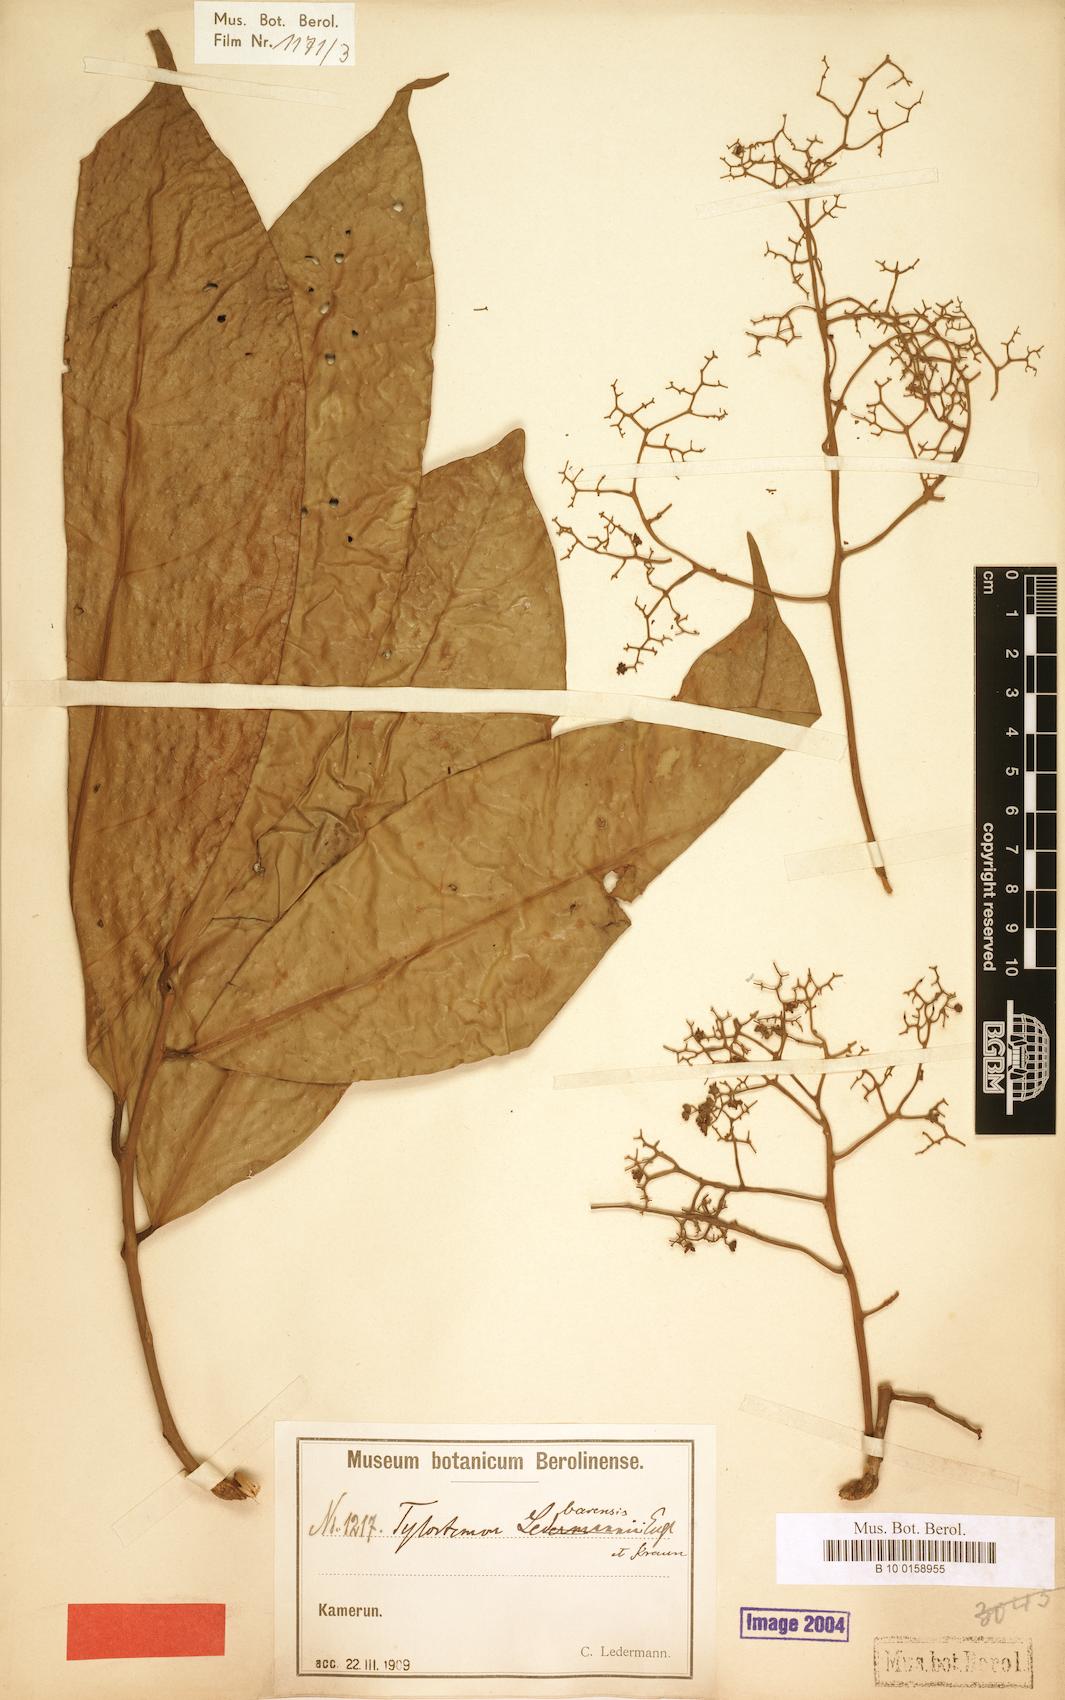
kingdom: Plantae
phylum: Tracheophyta
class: Magnoliopsida
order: Laurales
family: Lauraceae
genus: Beilschmiedia
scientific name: Beilschmiedia barensis
